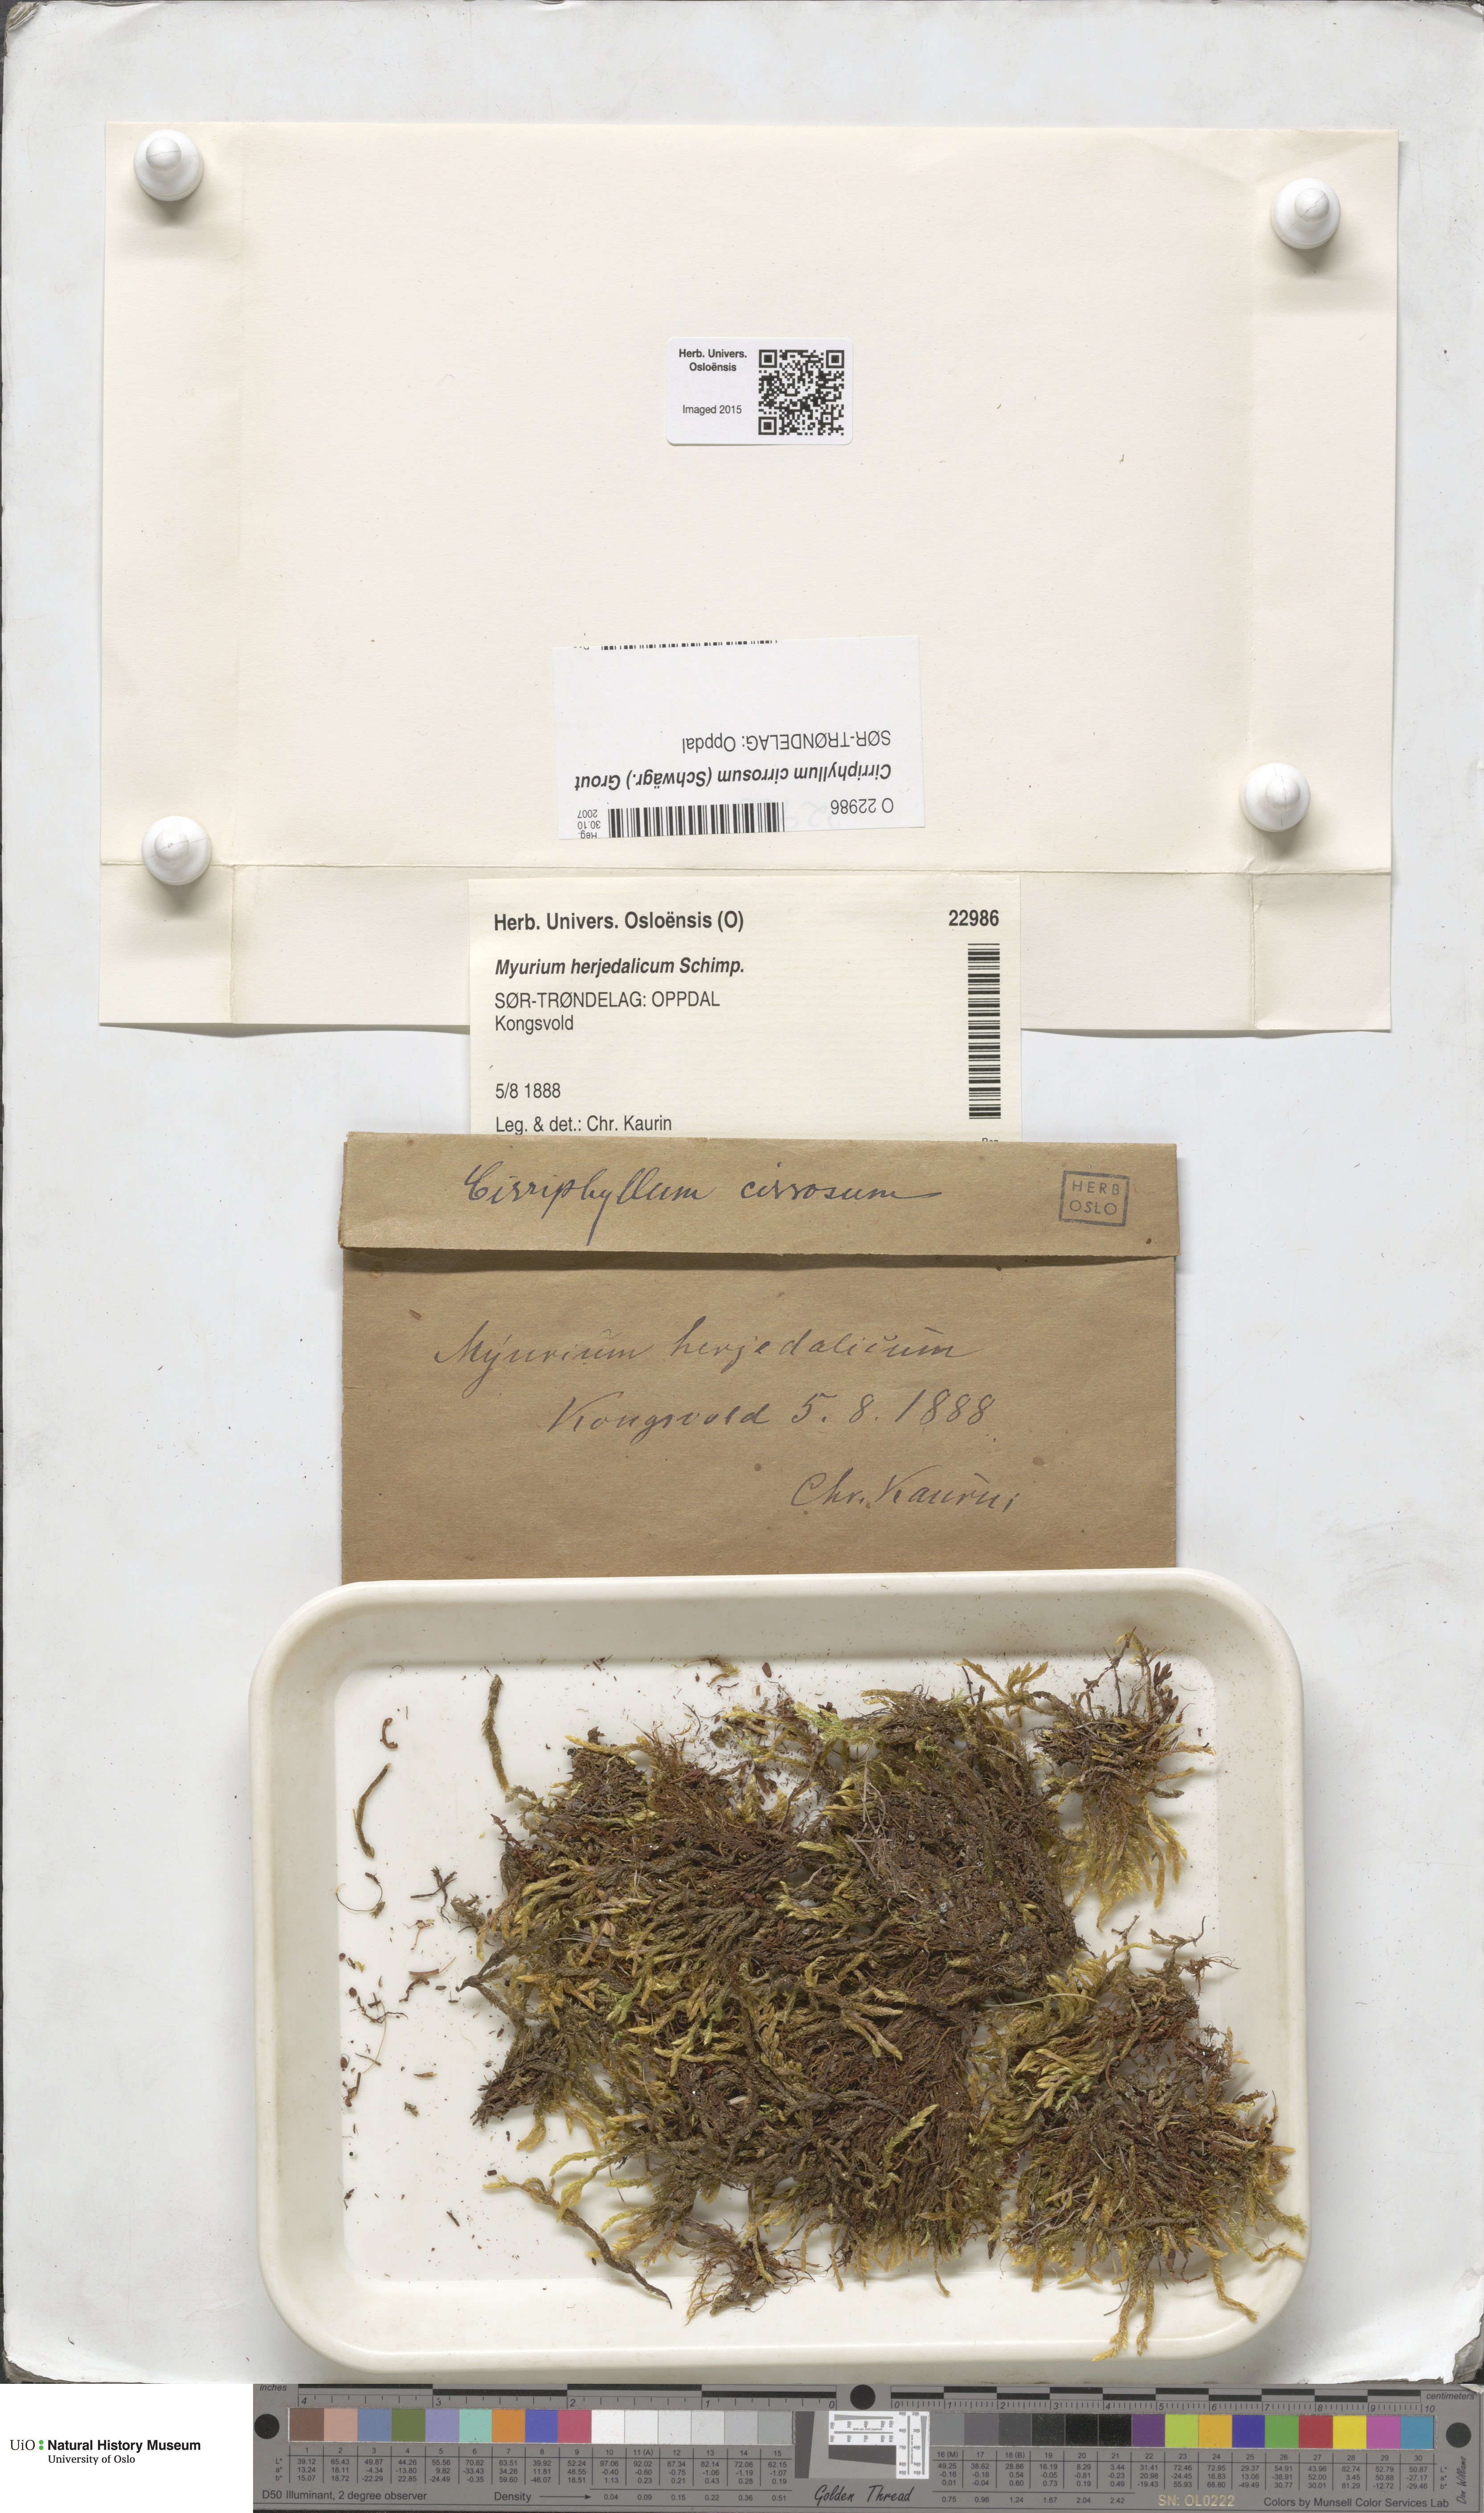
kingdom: Plantae
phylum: Bryophyta
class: Bryopsida
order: Hypnales
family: Brachytheciaceae
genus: Brachythecium
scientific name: Brachythecium cirrosum
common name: Tendril feather-moss
